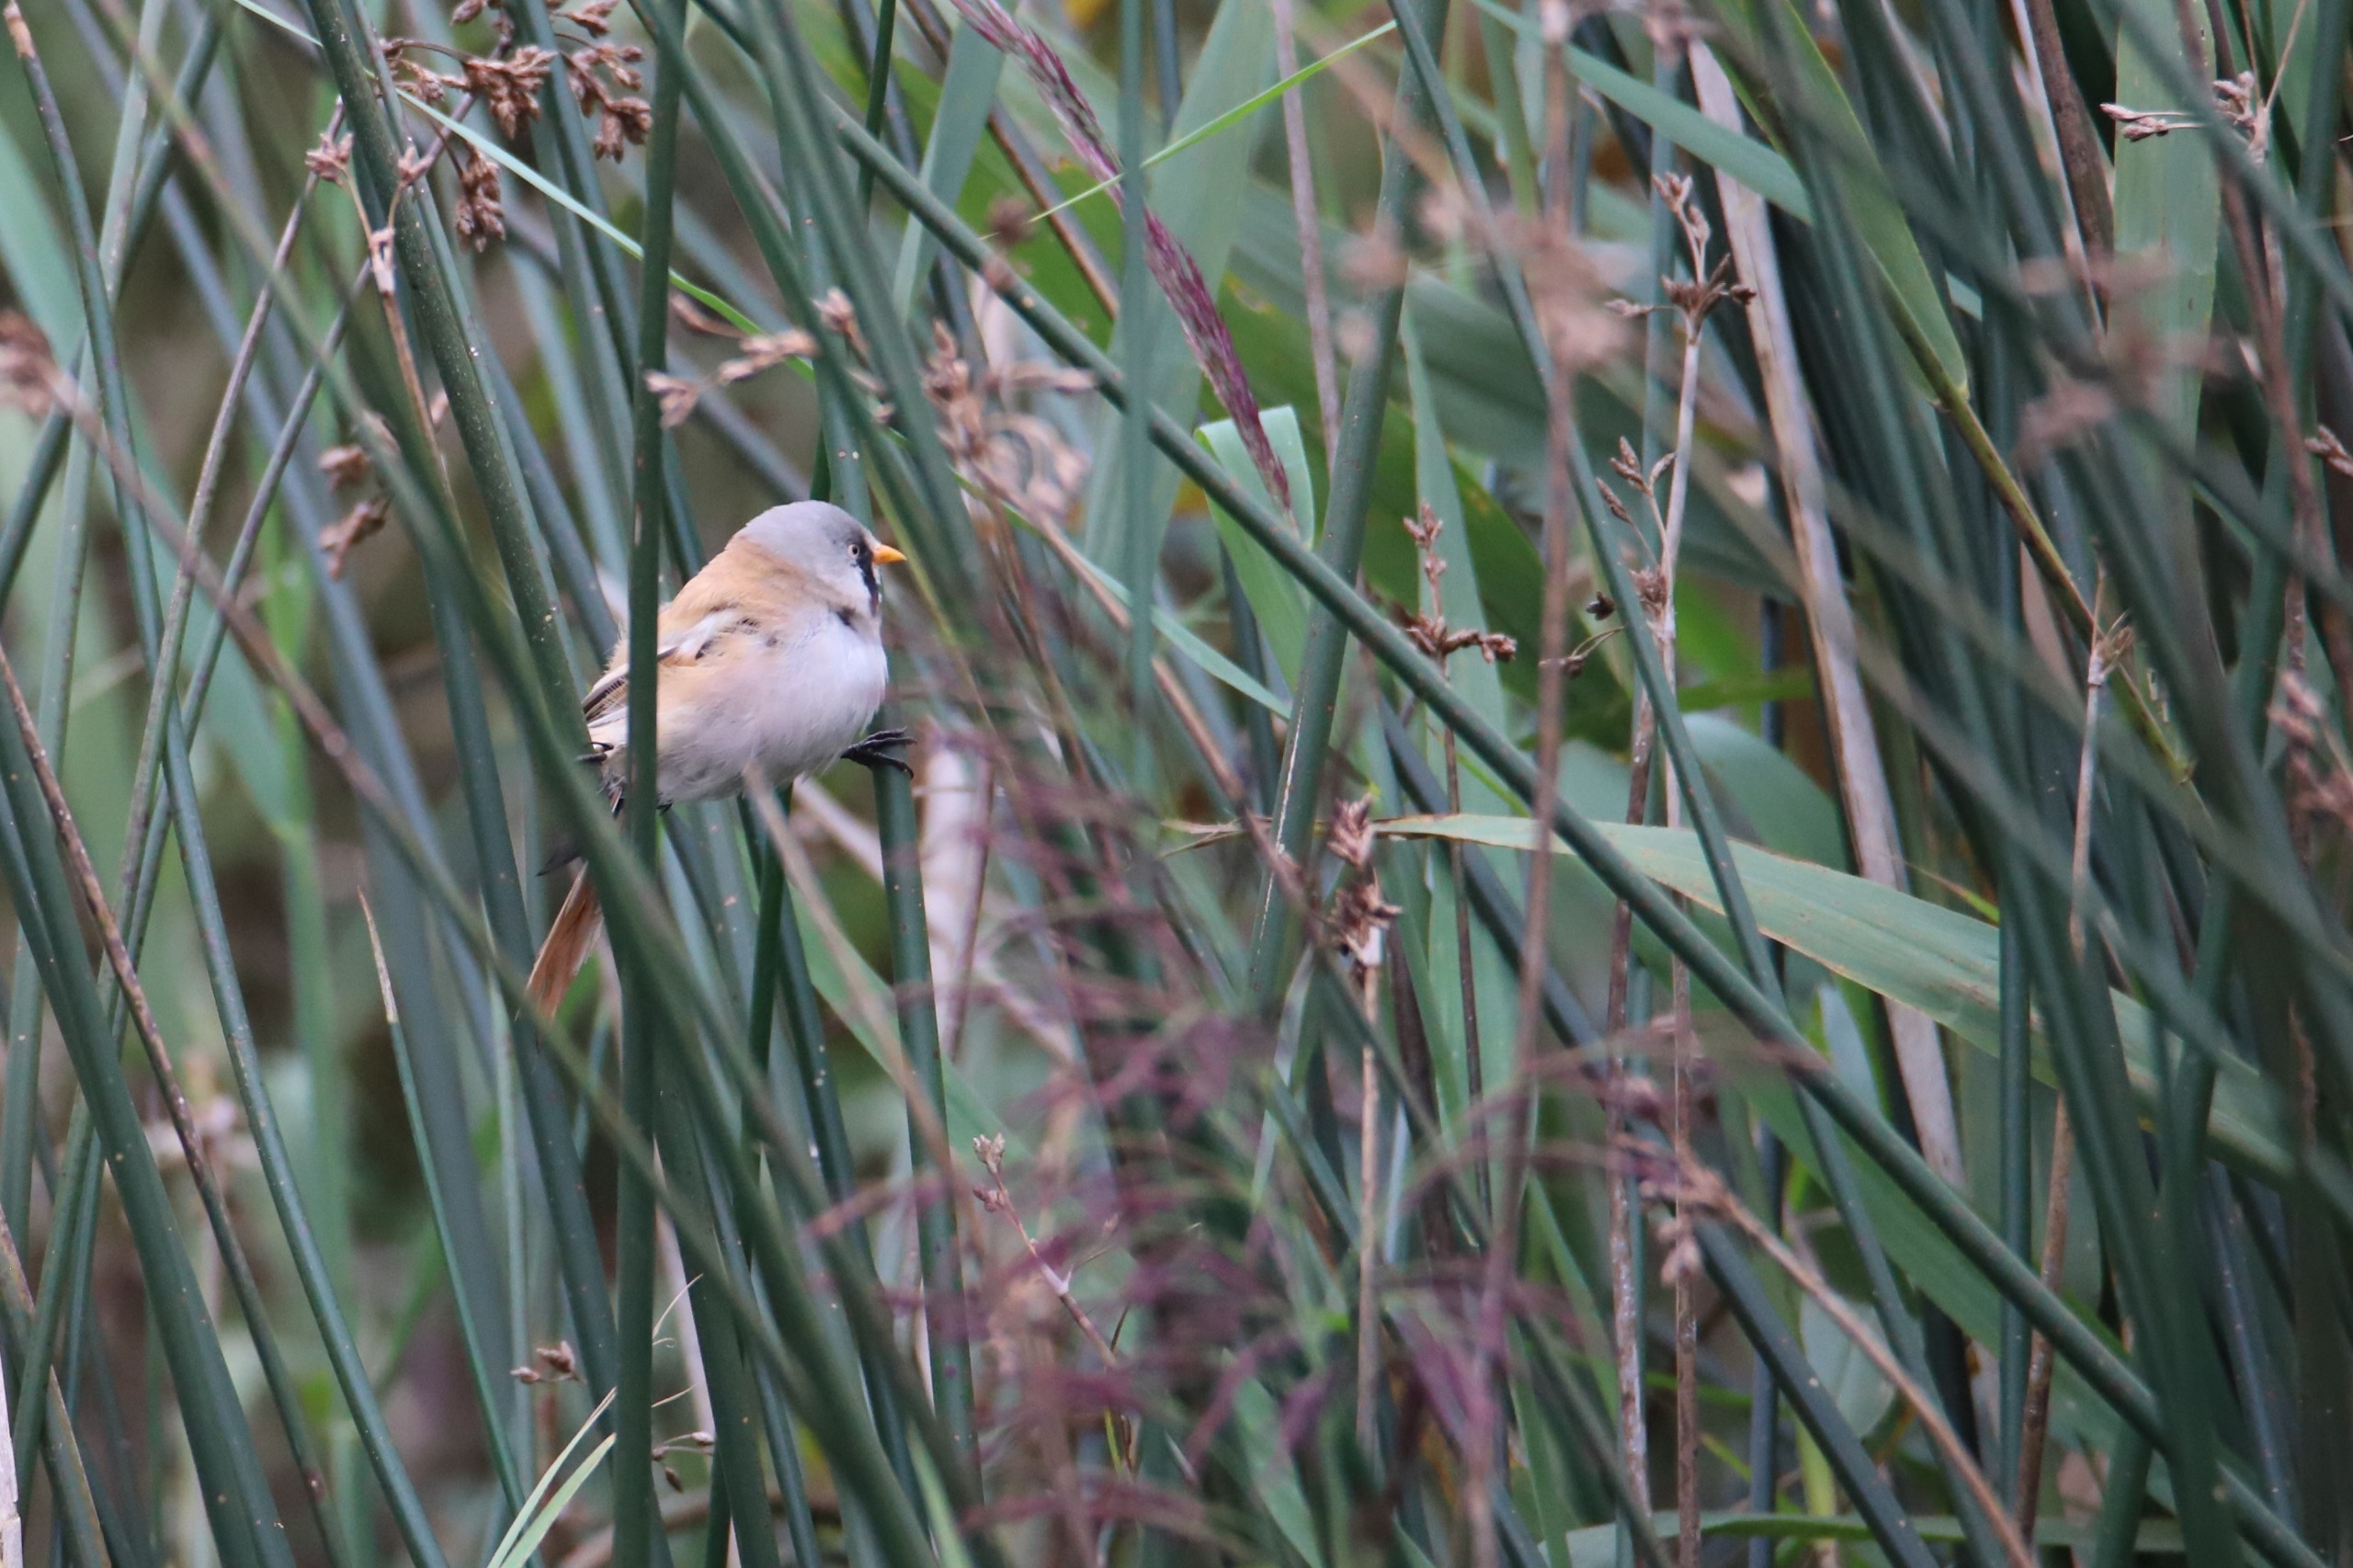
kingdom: Animalia
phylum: Chordata
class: Aves
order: Passeriformes
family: Panuridae
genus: Panurus
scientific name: Panurus biarmicus
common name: Skægmejse
